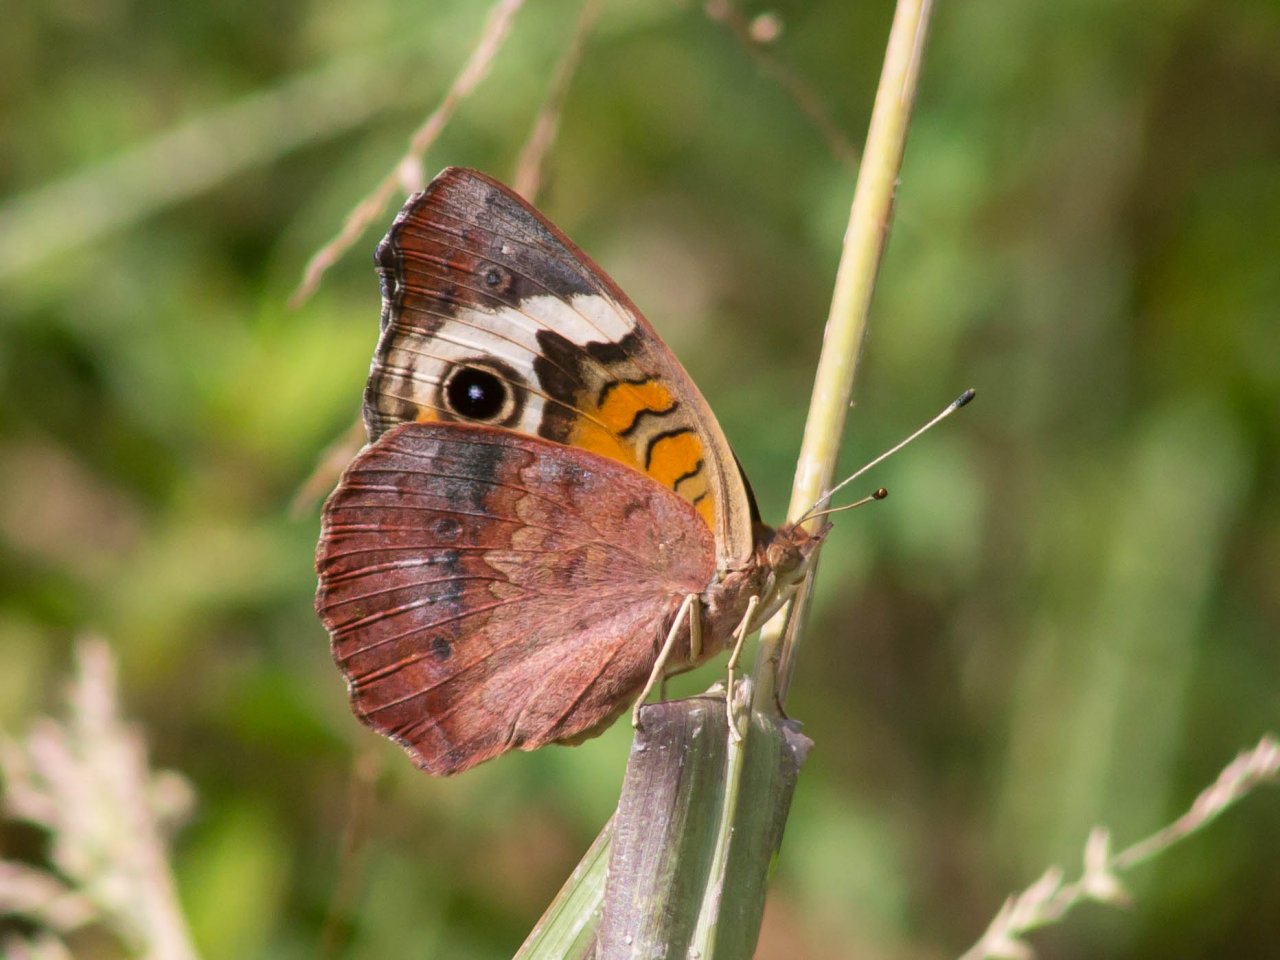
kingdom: Animalia
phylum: Arthropoda
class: Insecta
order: Lepidoptera
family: Nymphalidae
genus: Junonia
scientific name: Junonia coenia
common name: Common Buckeye
